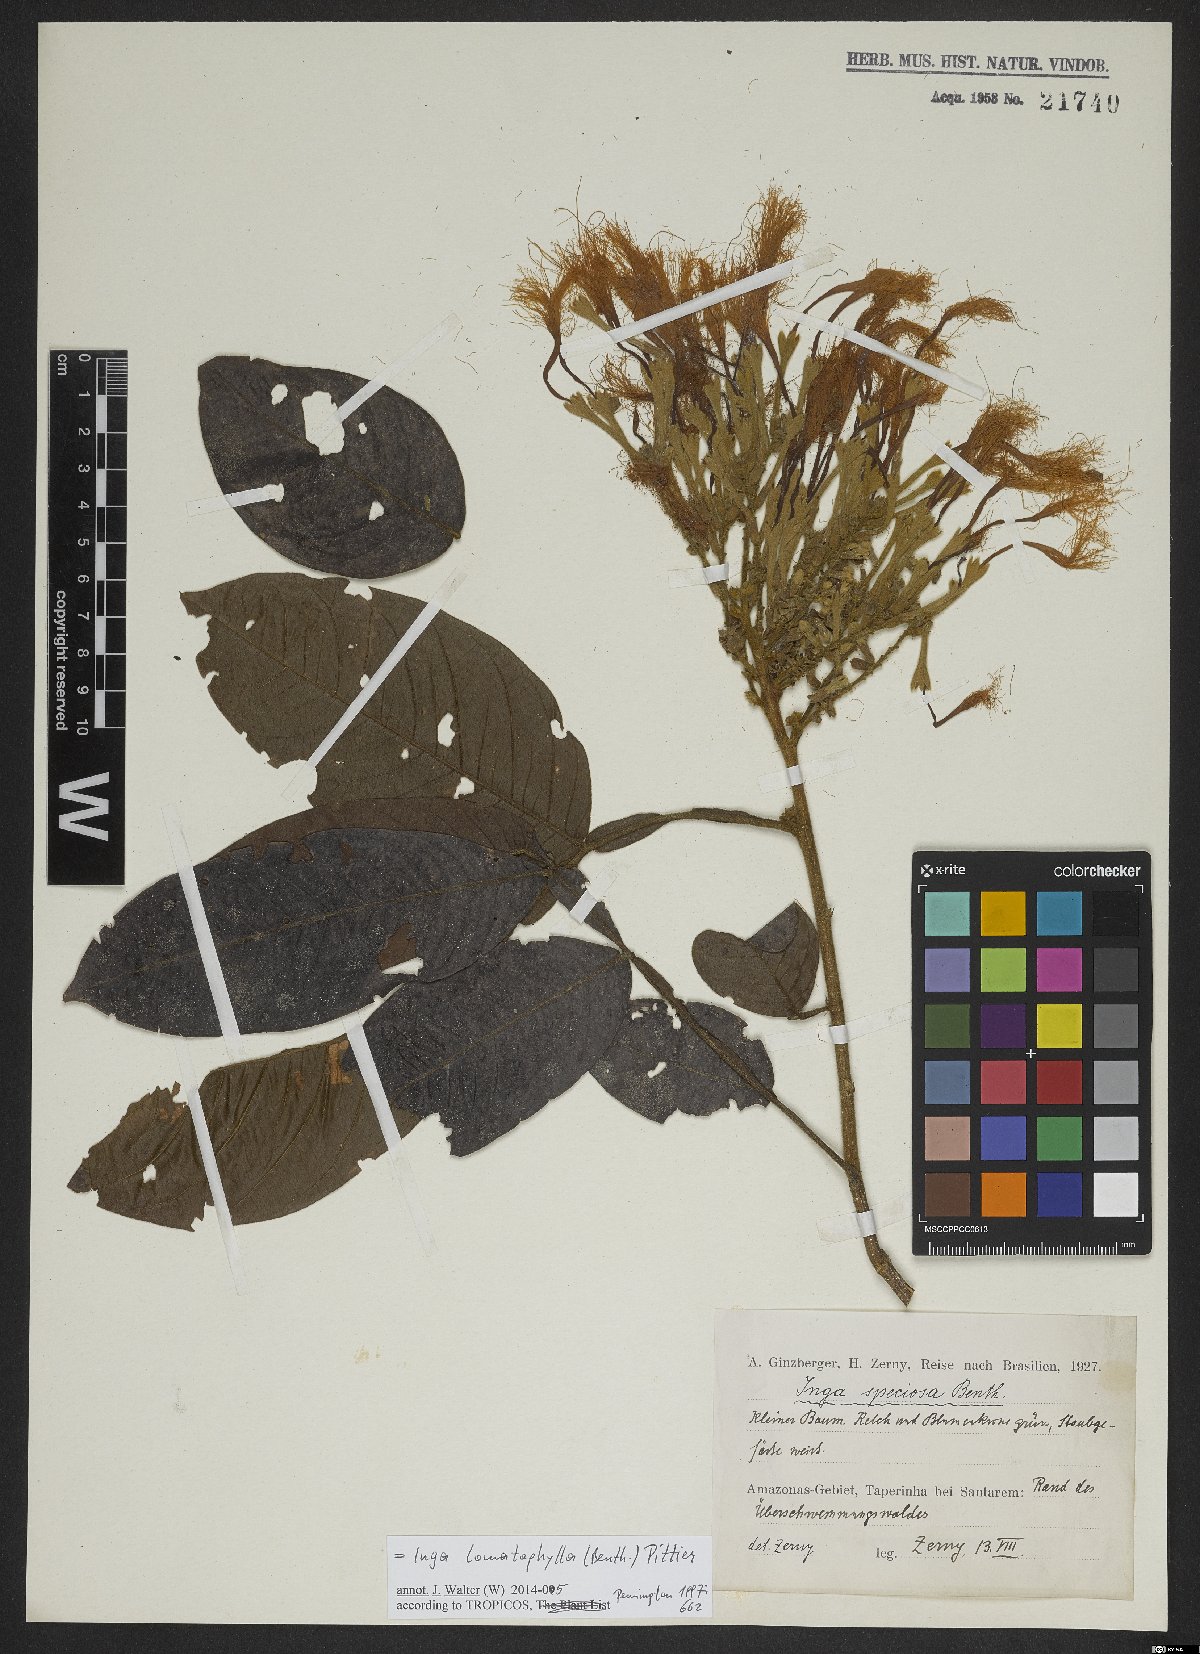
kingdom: Plantae
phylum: Tracheophyta
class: Magnoliopsida
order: Fabales
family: Fabaceae
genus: Inga
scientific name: Inga lomatophylla
